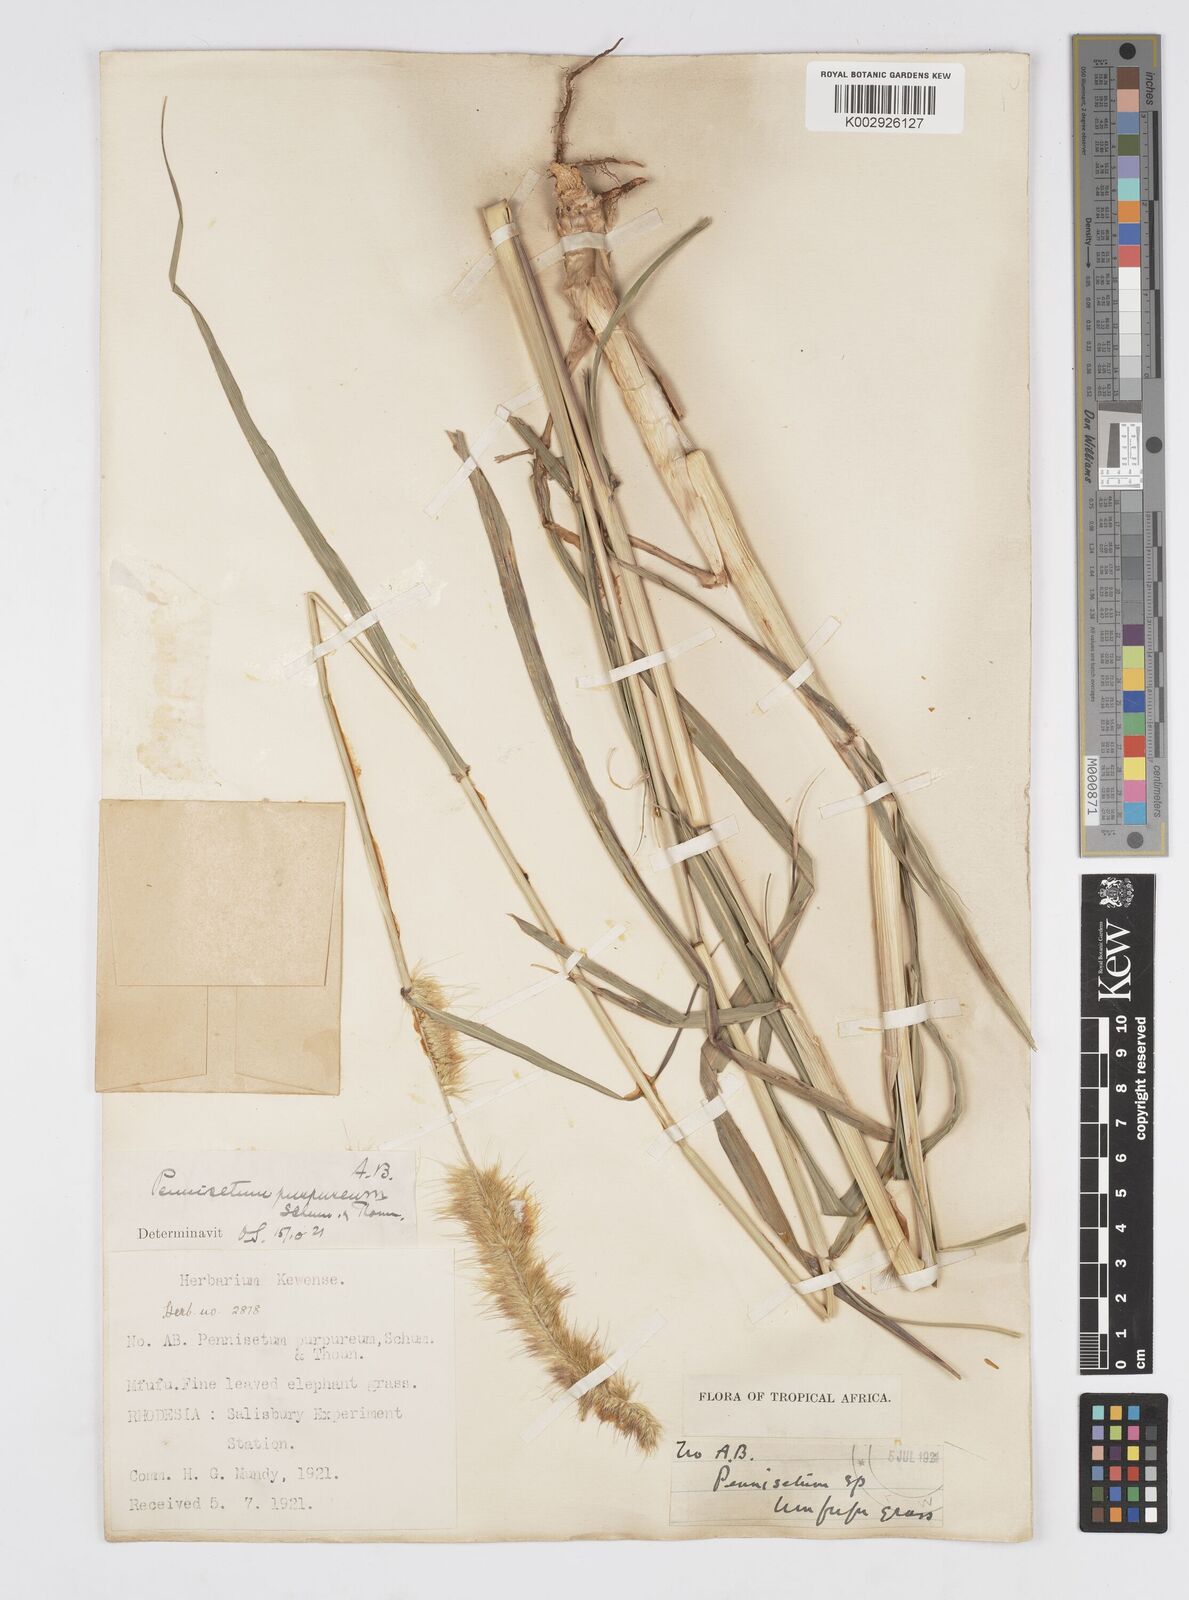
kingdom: Plantae
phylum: Tracheophyta
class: Liliopsida
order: Poales
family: Poaceae
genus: Cenchrus
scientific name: Cenchrus purpureus
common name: Elephant grass
